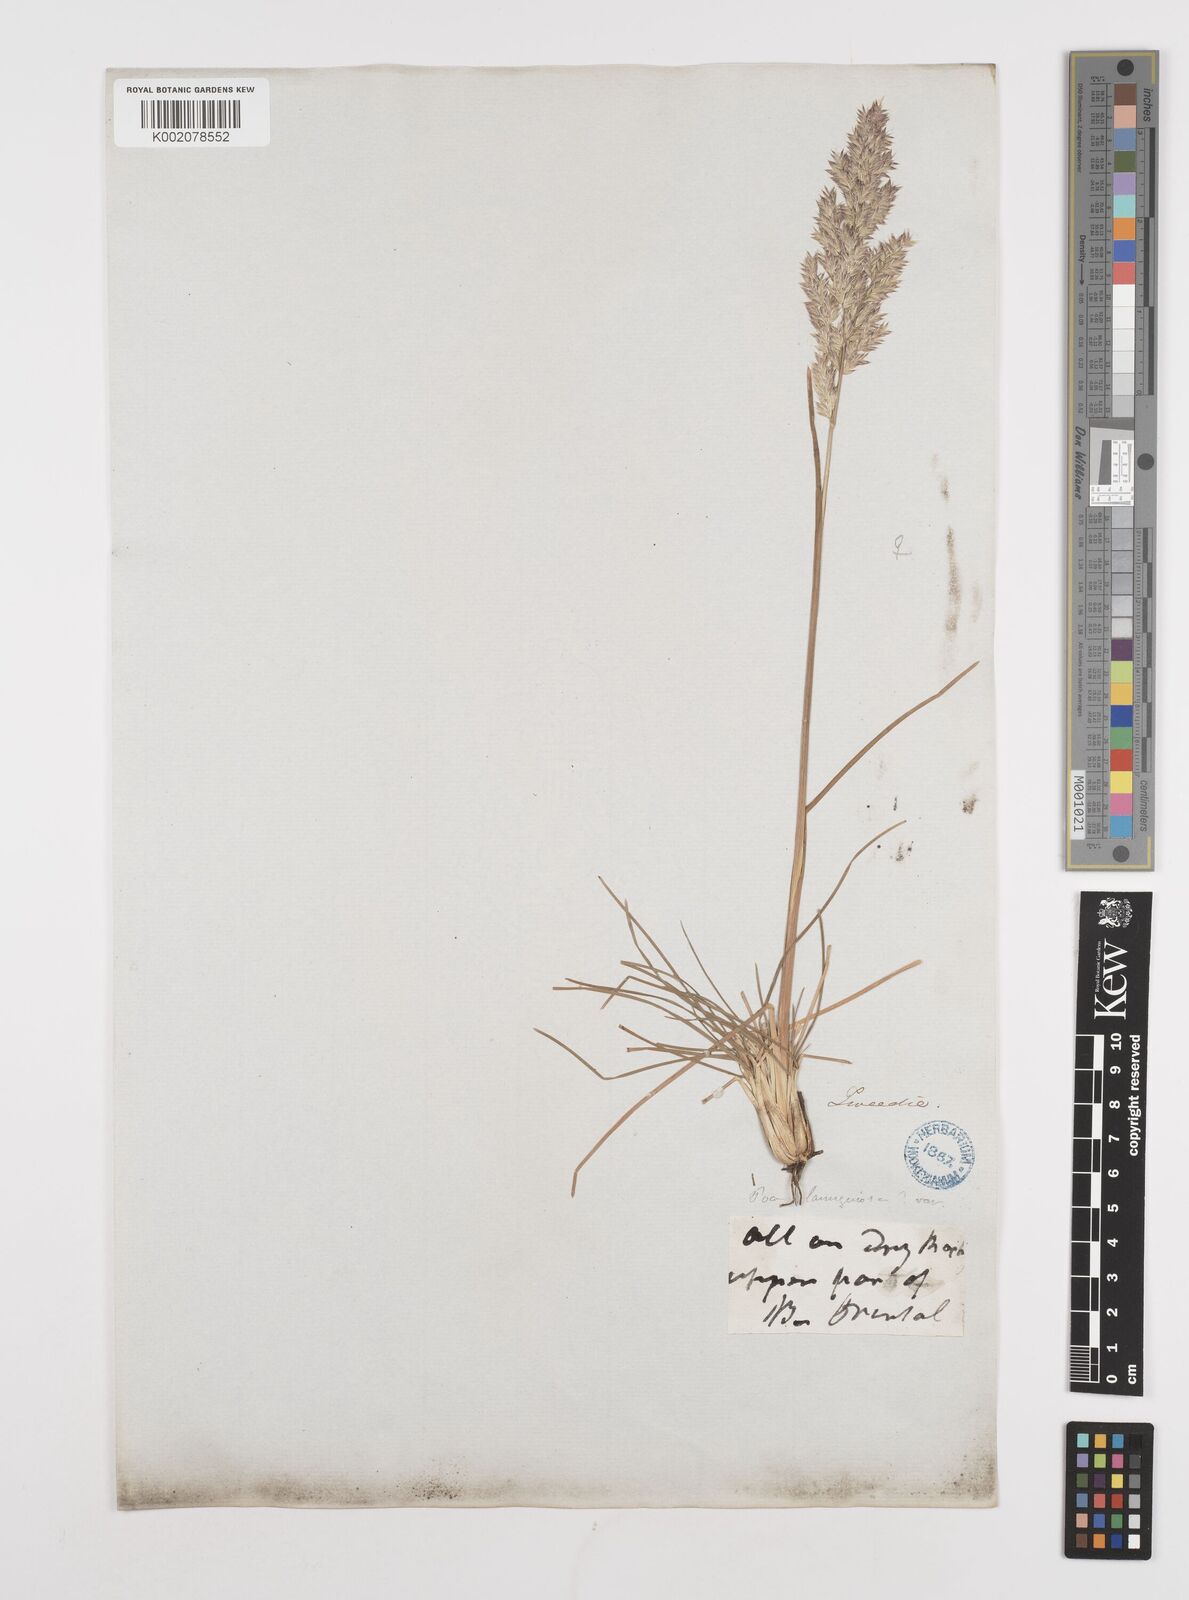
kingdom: Plantae
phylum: Tracheophyta
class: Liliopsida
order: Poales
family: Poaceae
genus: Poa
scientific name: Poa lanuginosa
